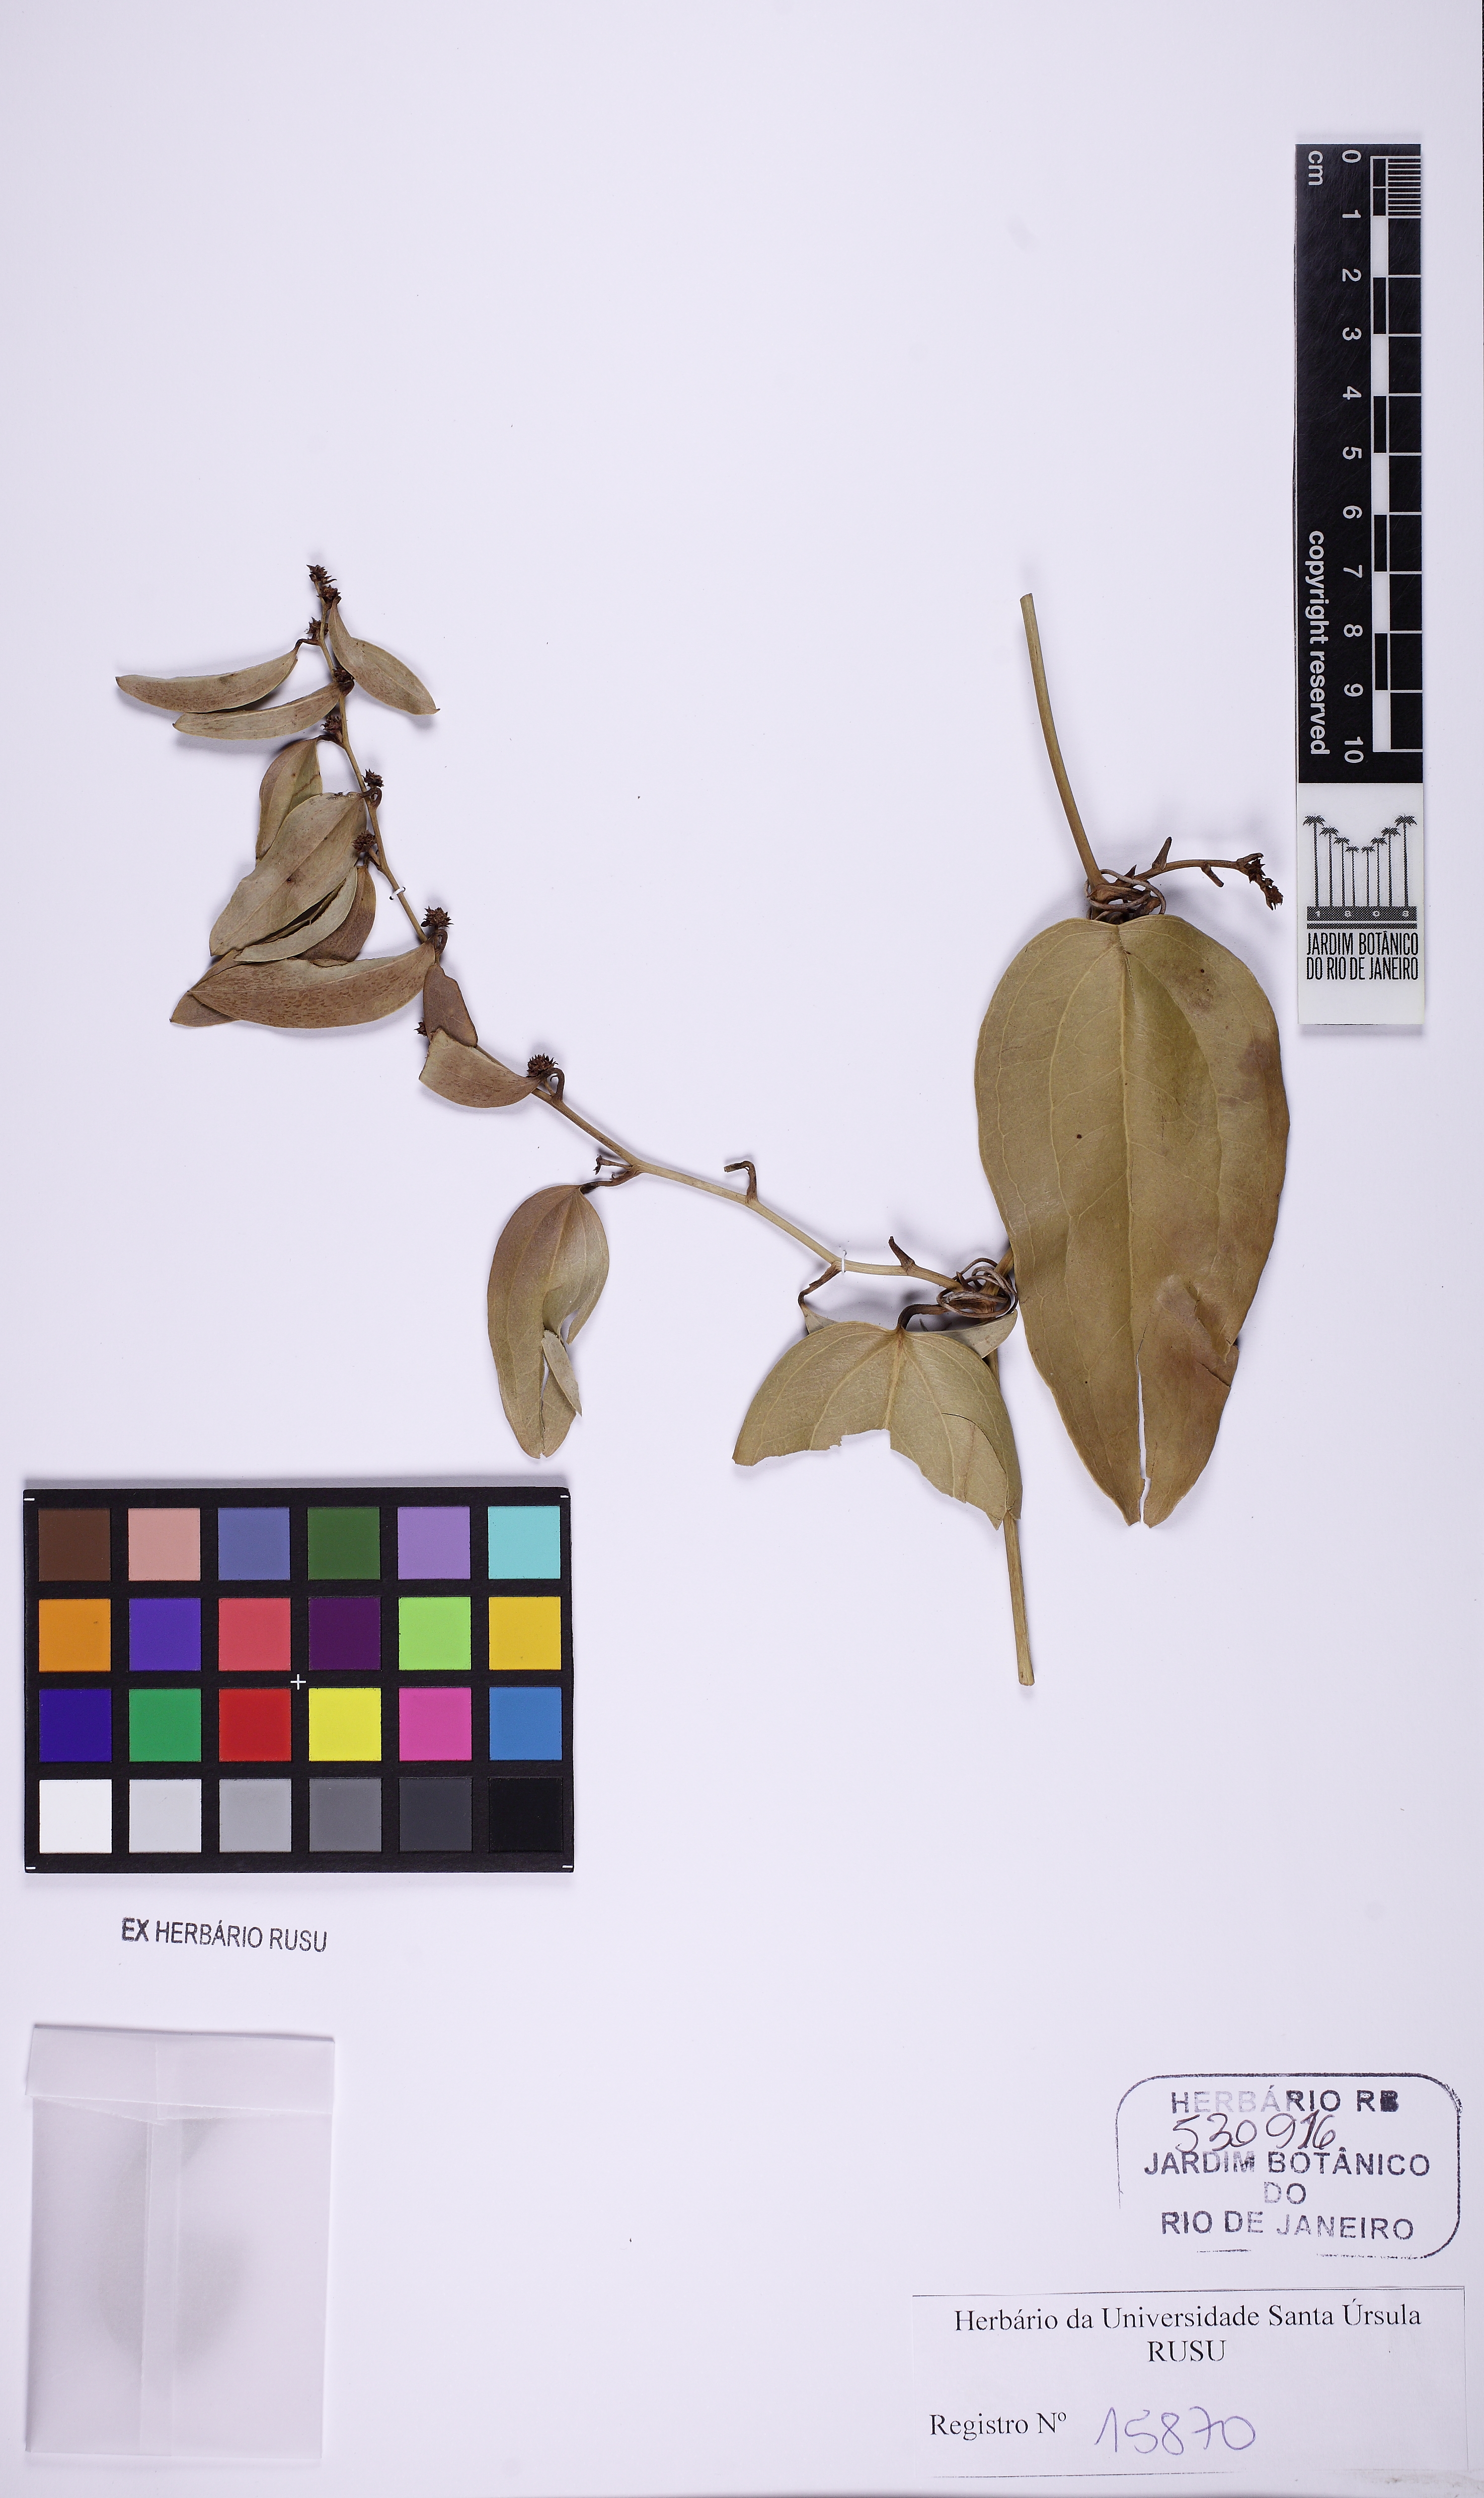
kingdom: Plantae
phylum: Tracheophyta
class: Liliopsida
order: Liliales
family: Smilacaceae
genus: Smilax
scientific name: Smilax elastica
